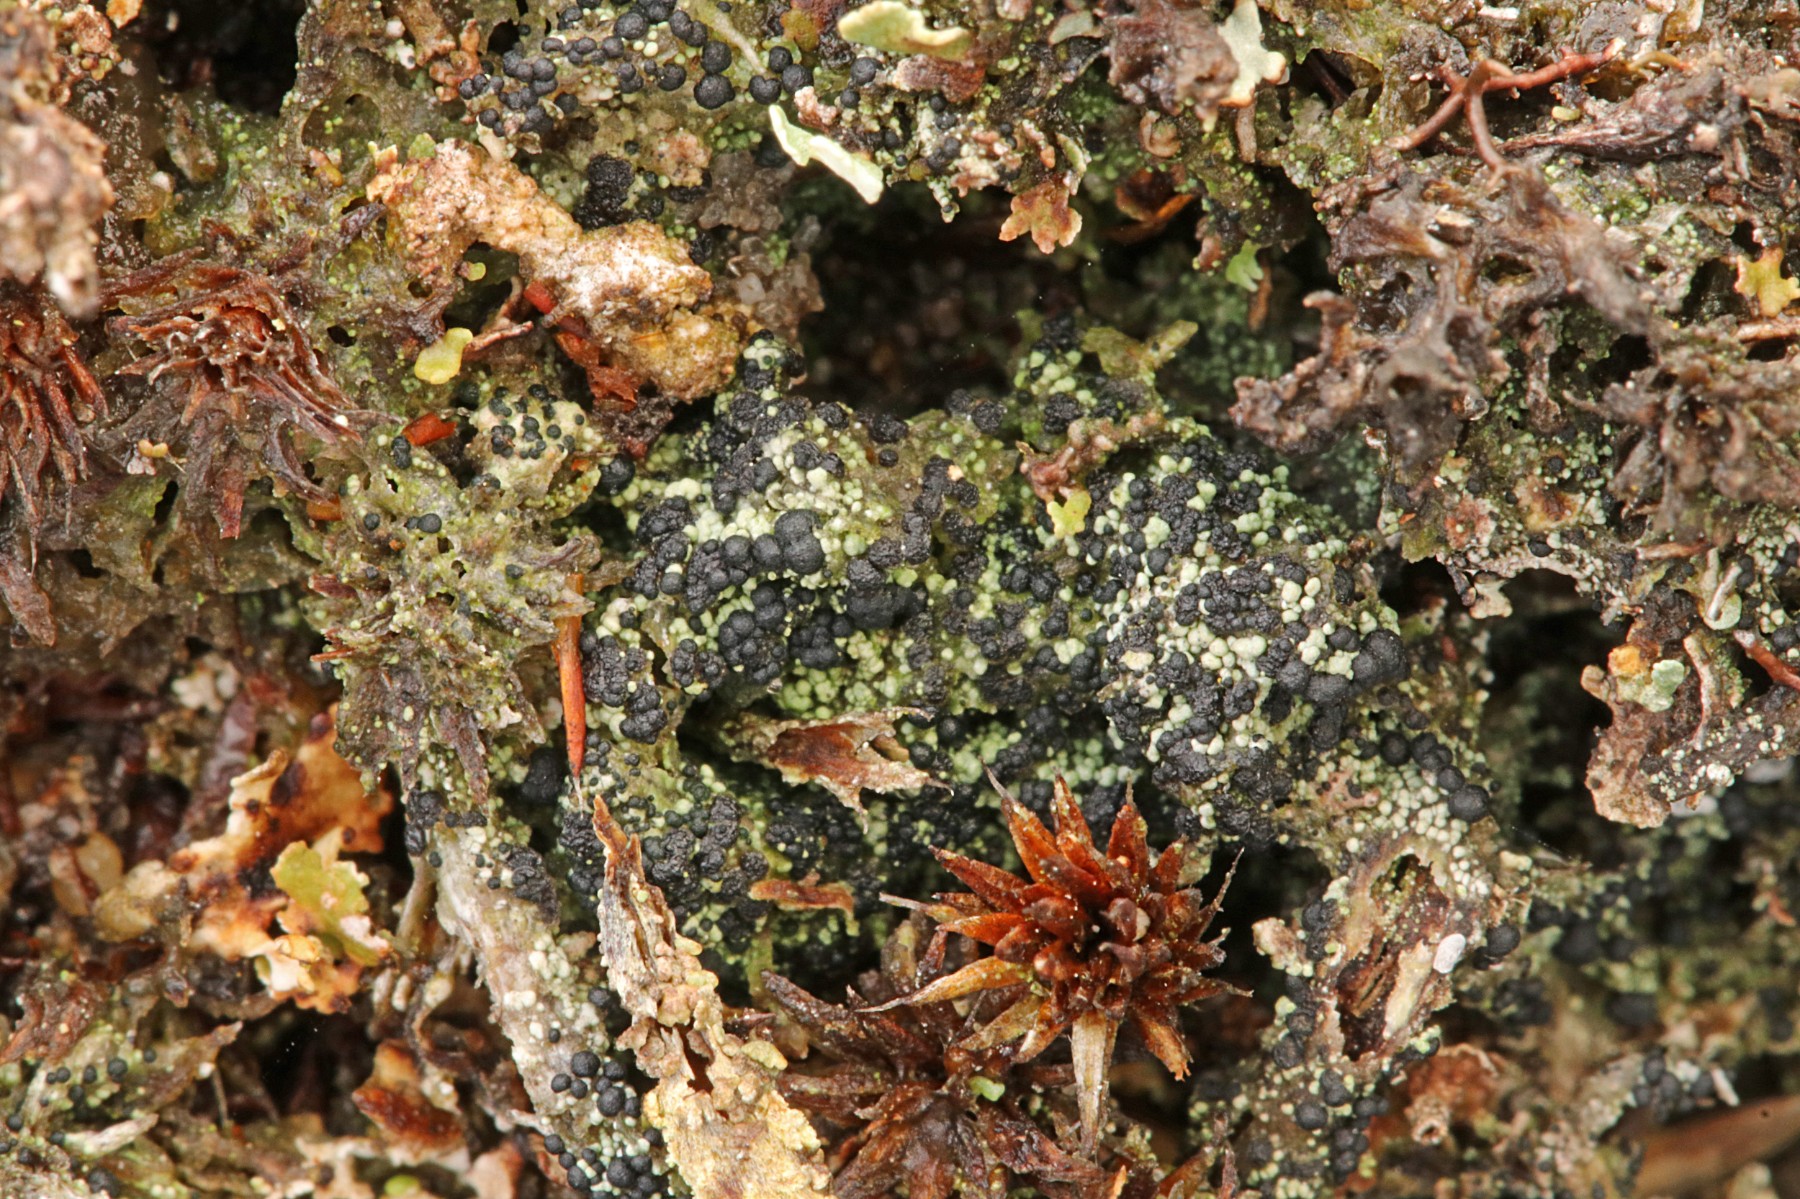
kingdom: Fungi
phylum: Ascomycota
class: Lecanoromycetes
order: Lecanorales
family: Byssolomataceae
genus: Micarea
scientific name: Micarea lignaria
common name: tørve-knaplav
